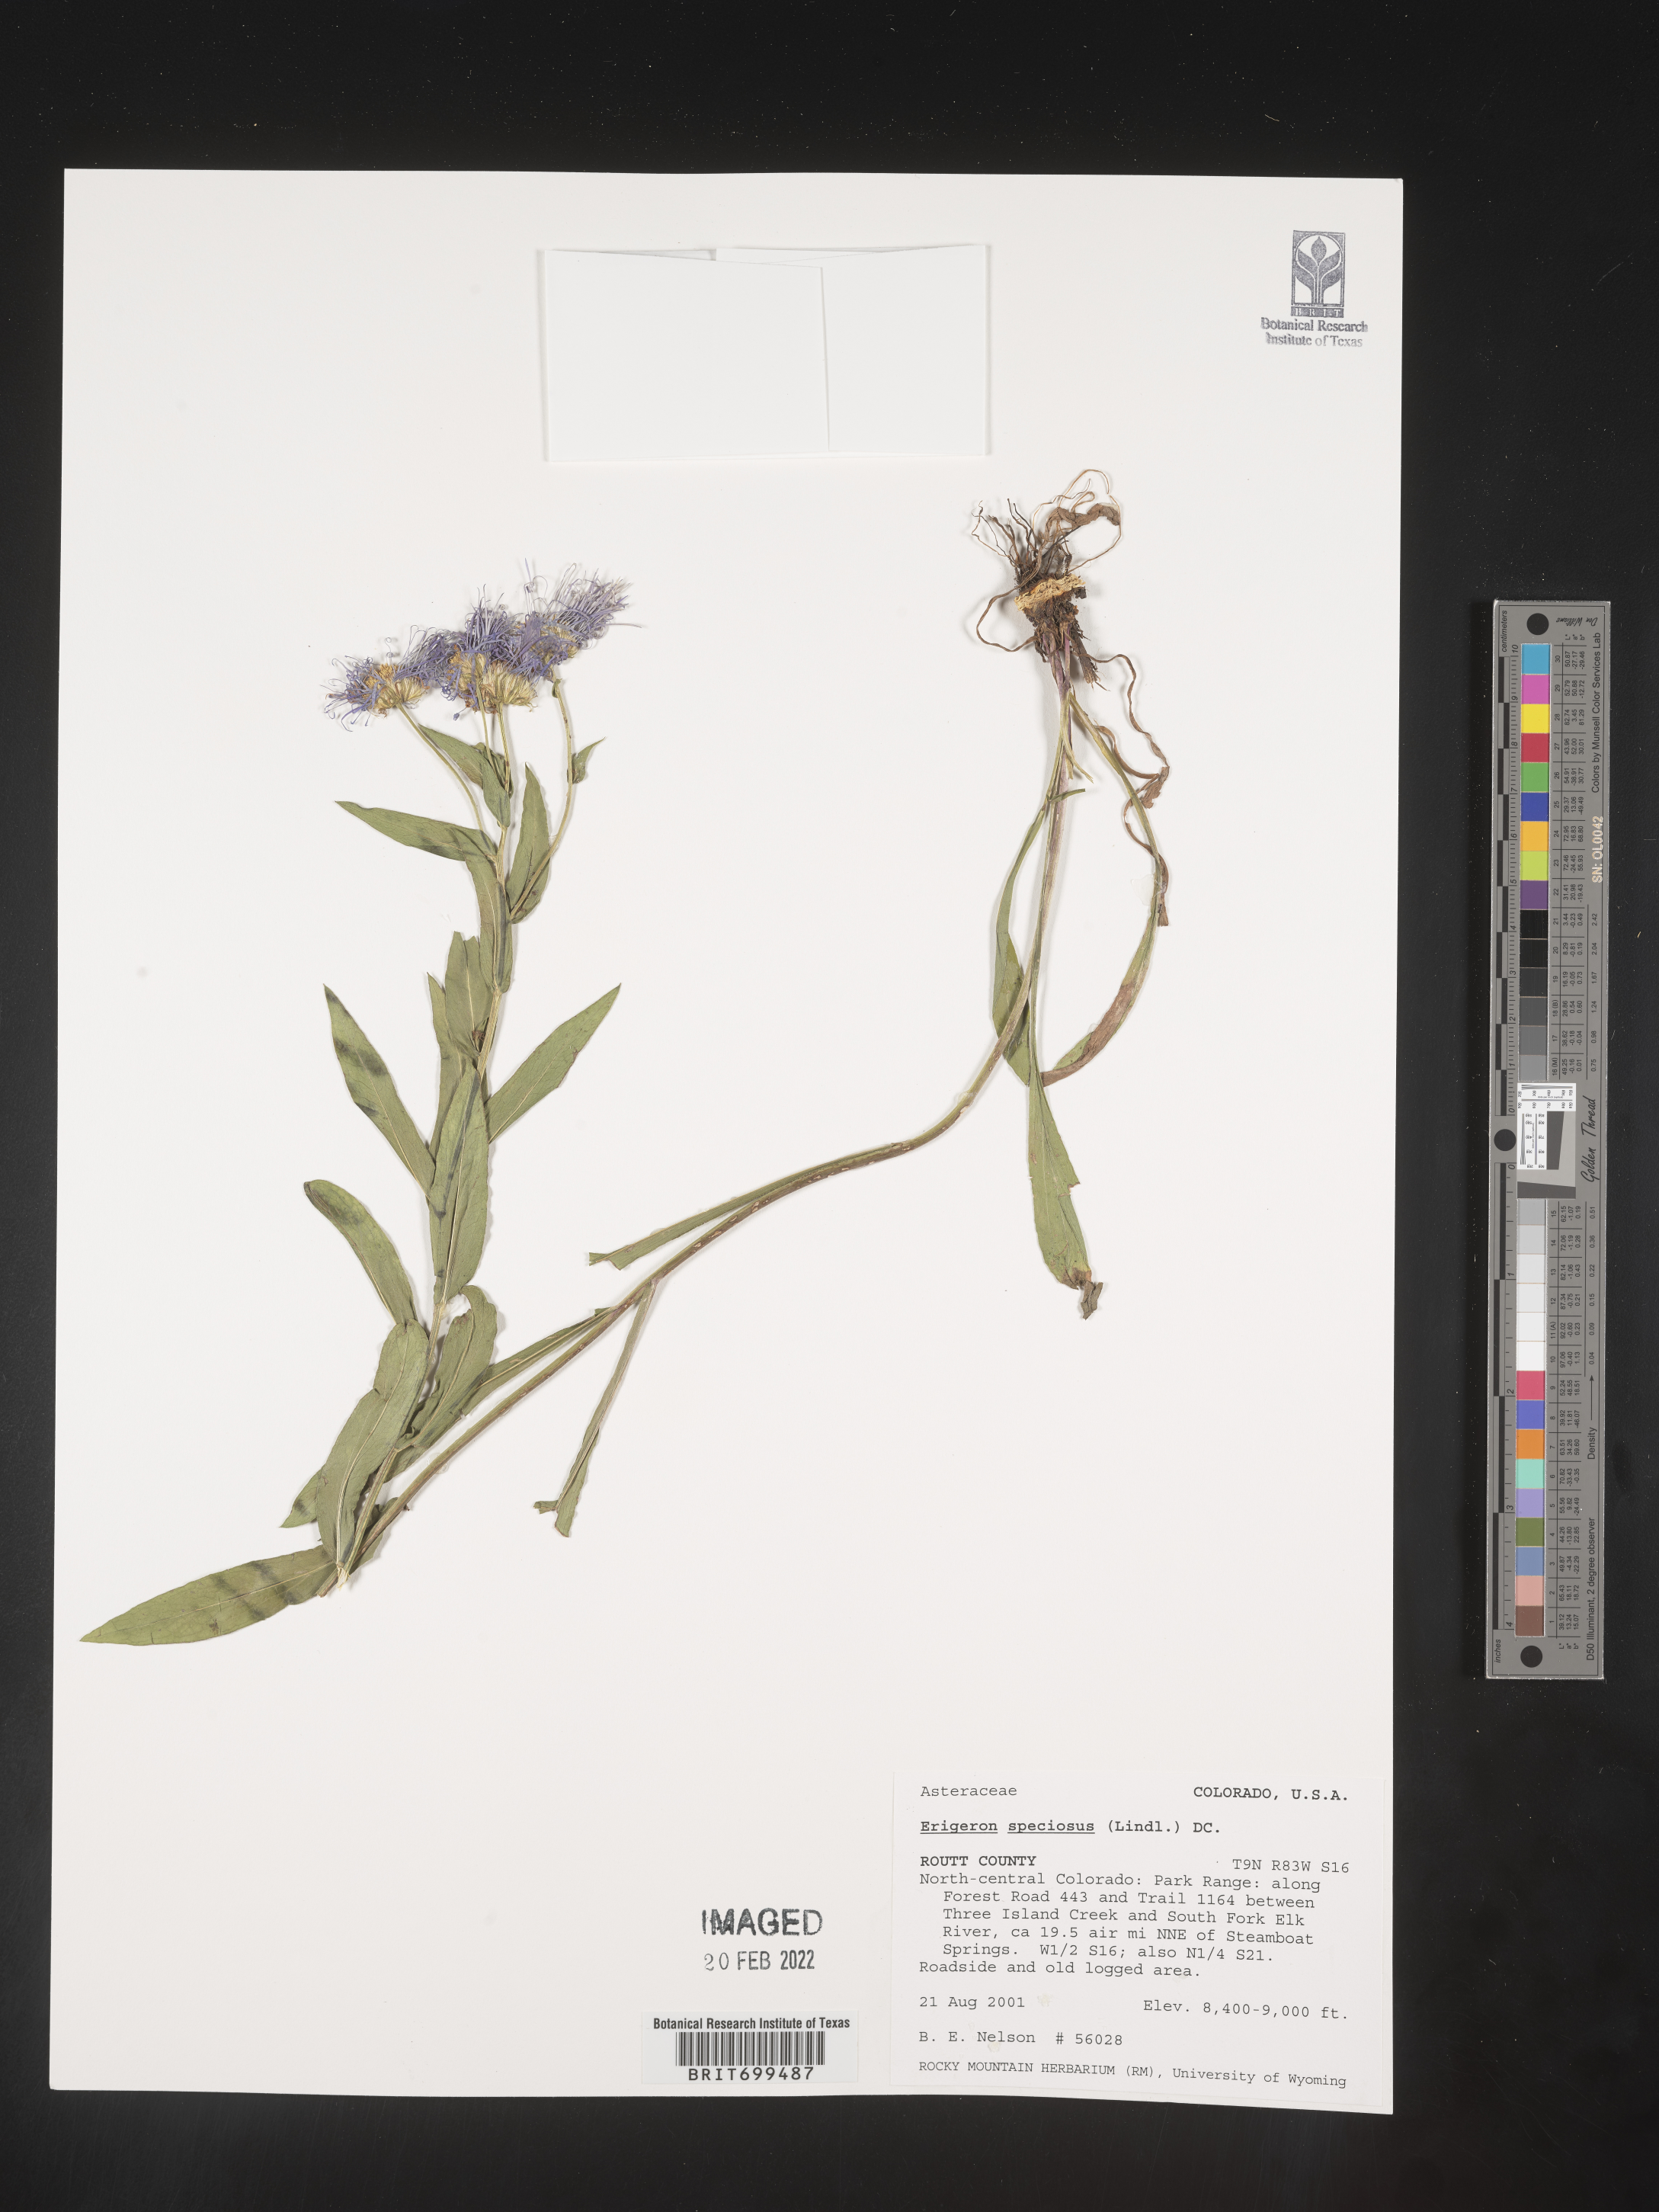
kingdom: Plantae
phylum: Tracheophyta
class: Magnoliopsida
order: Asterales
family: Asteraceae
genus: Erigeron
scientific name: Erigeron speciosus
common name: Aspen fleabane
